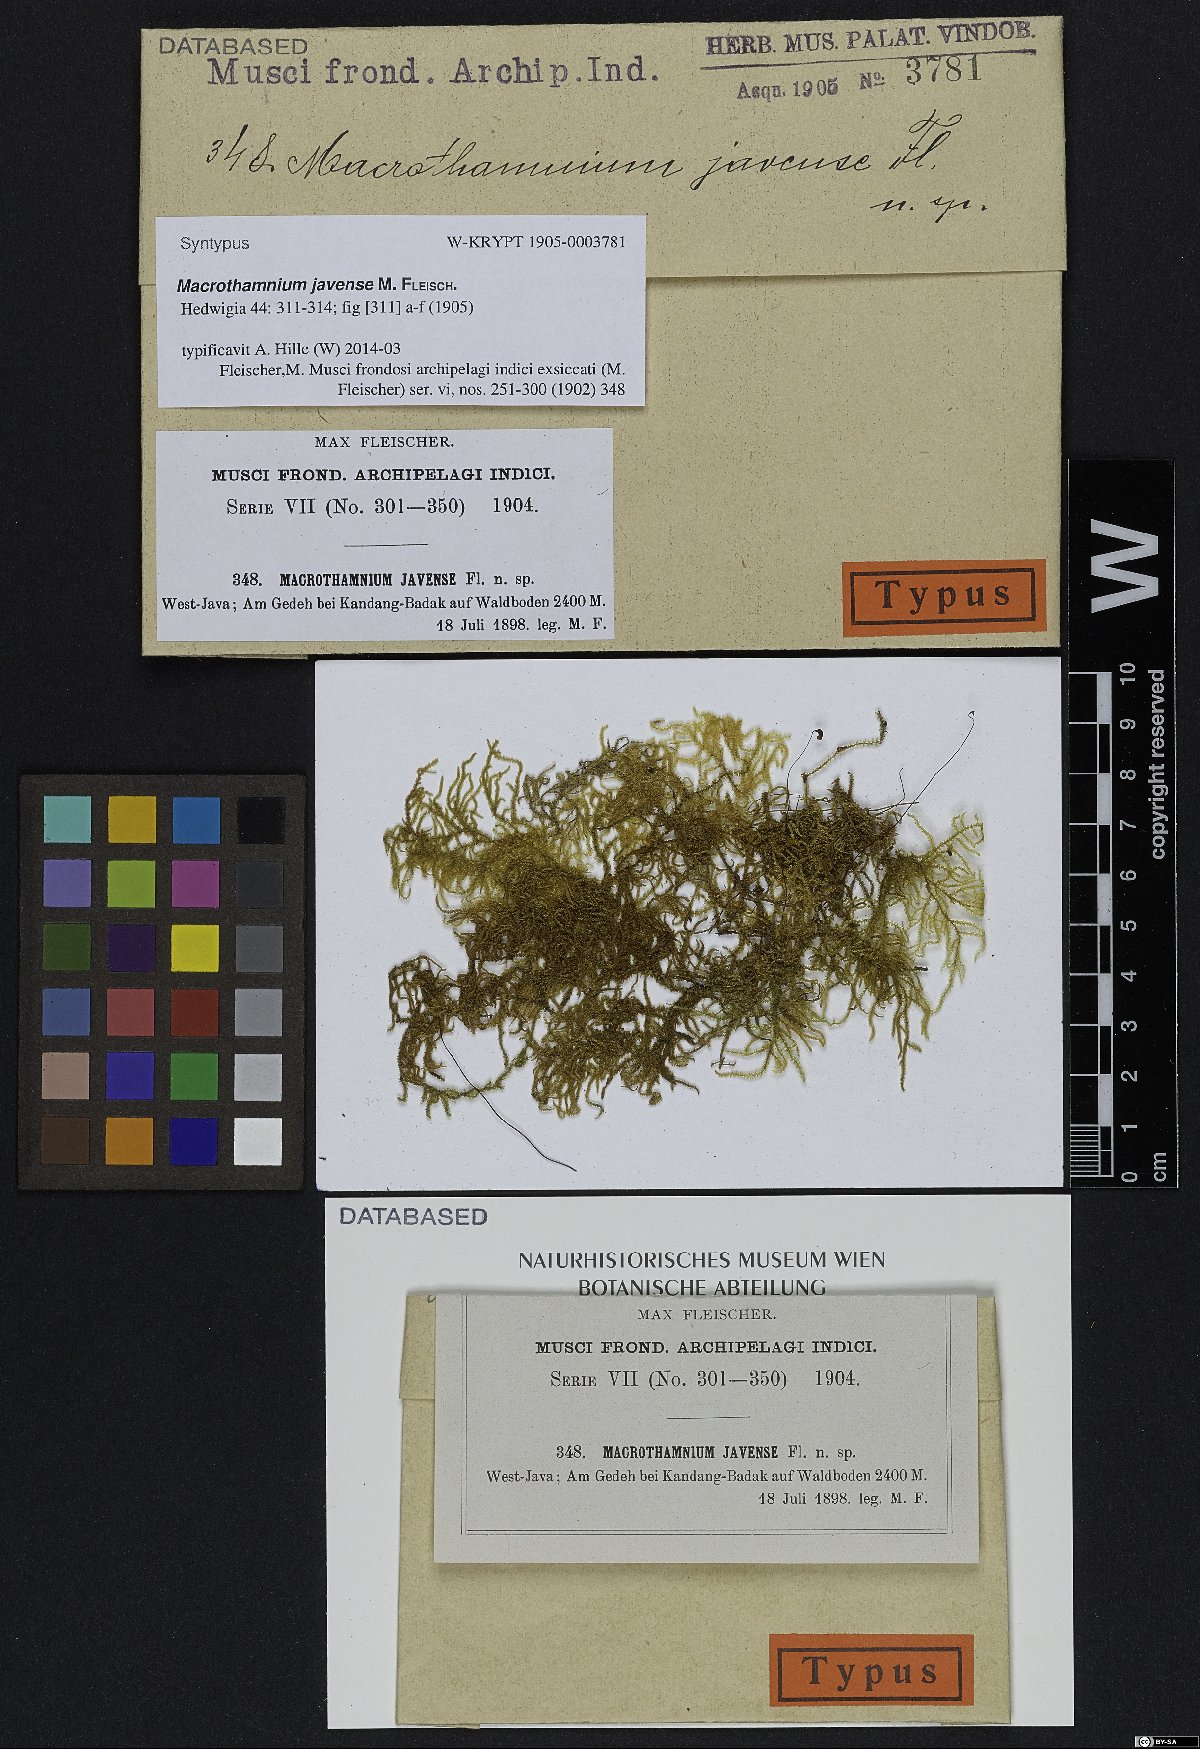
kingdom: Plantae
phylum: Bryophyta
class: Bryopsida
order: Hypnales
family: Hylocomiaceae
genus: Macrothamnium
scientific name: Macrothamnium javense
